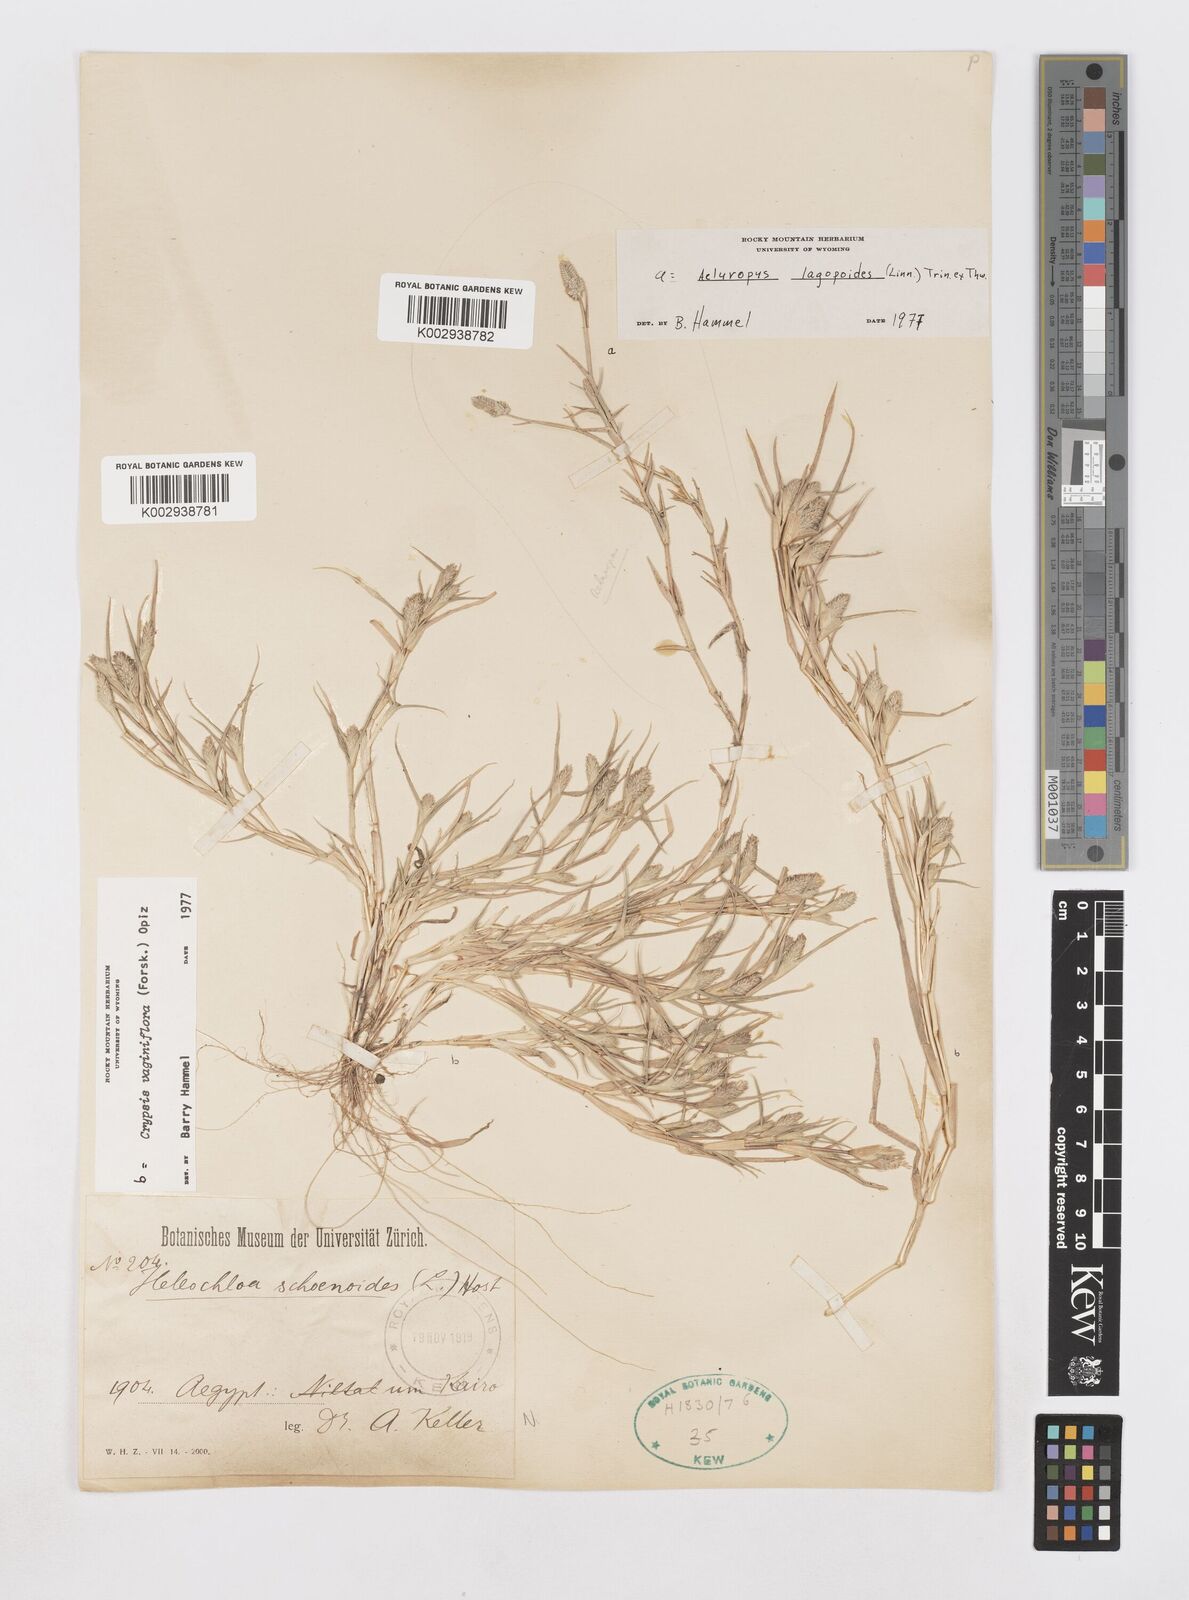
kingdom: Plantae
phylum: Tracheophyta
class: Liliopsida
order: Poales
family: Poaceae
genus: Sporobolus
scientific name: Sporobolus niliacus
